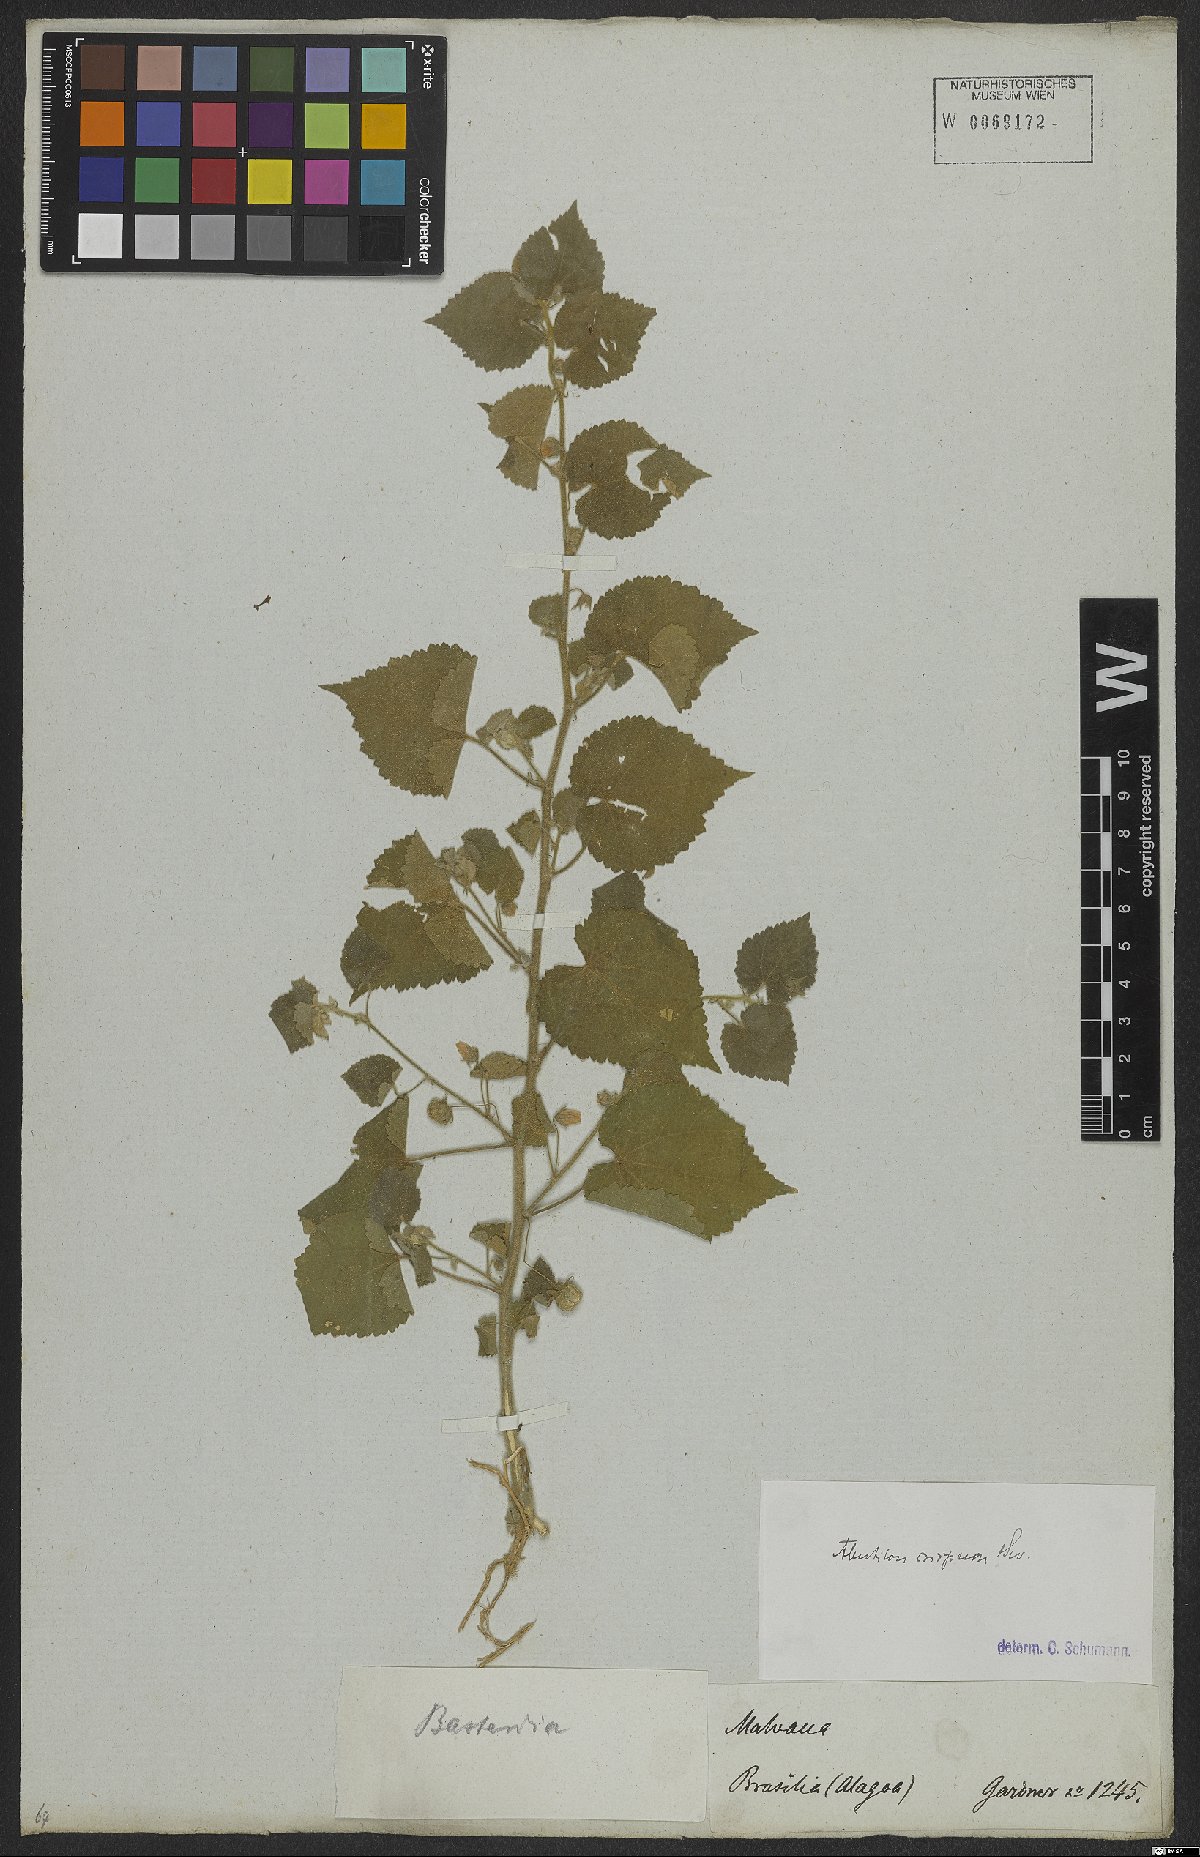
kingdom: Plantae
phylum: Tracheophyta
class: Magnoliopsida
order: Malvales
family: Malvaceae
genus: Herissantia
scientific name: Herissantia crispa
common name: Bladdermallow
